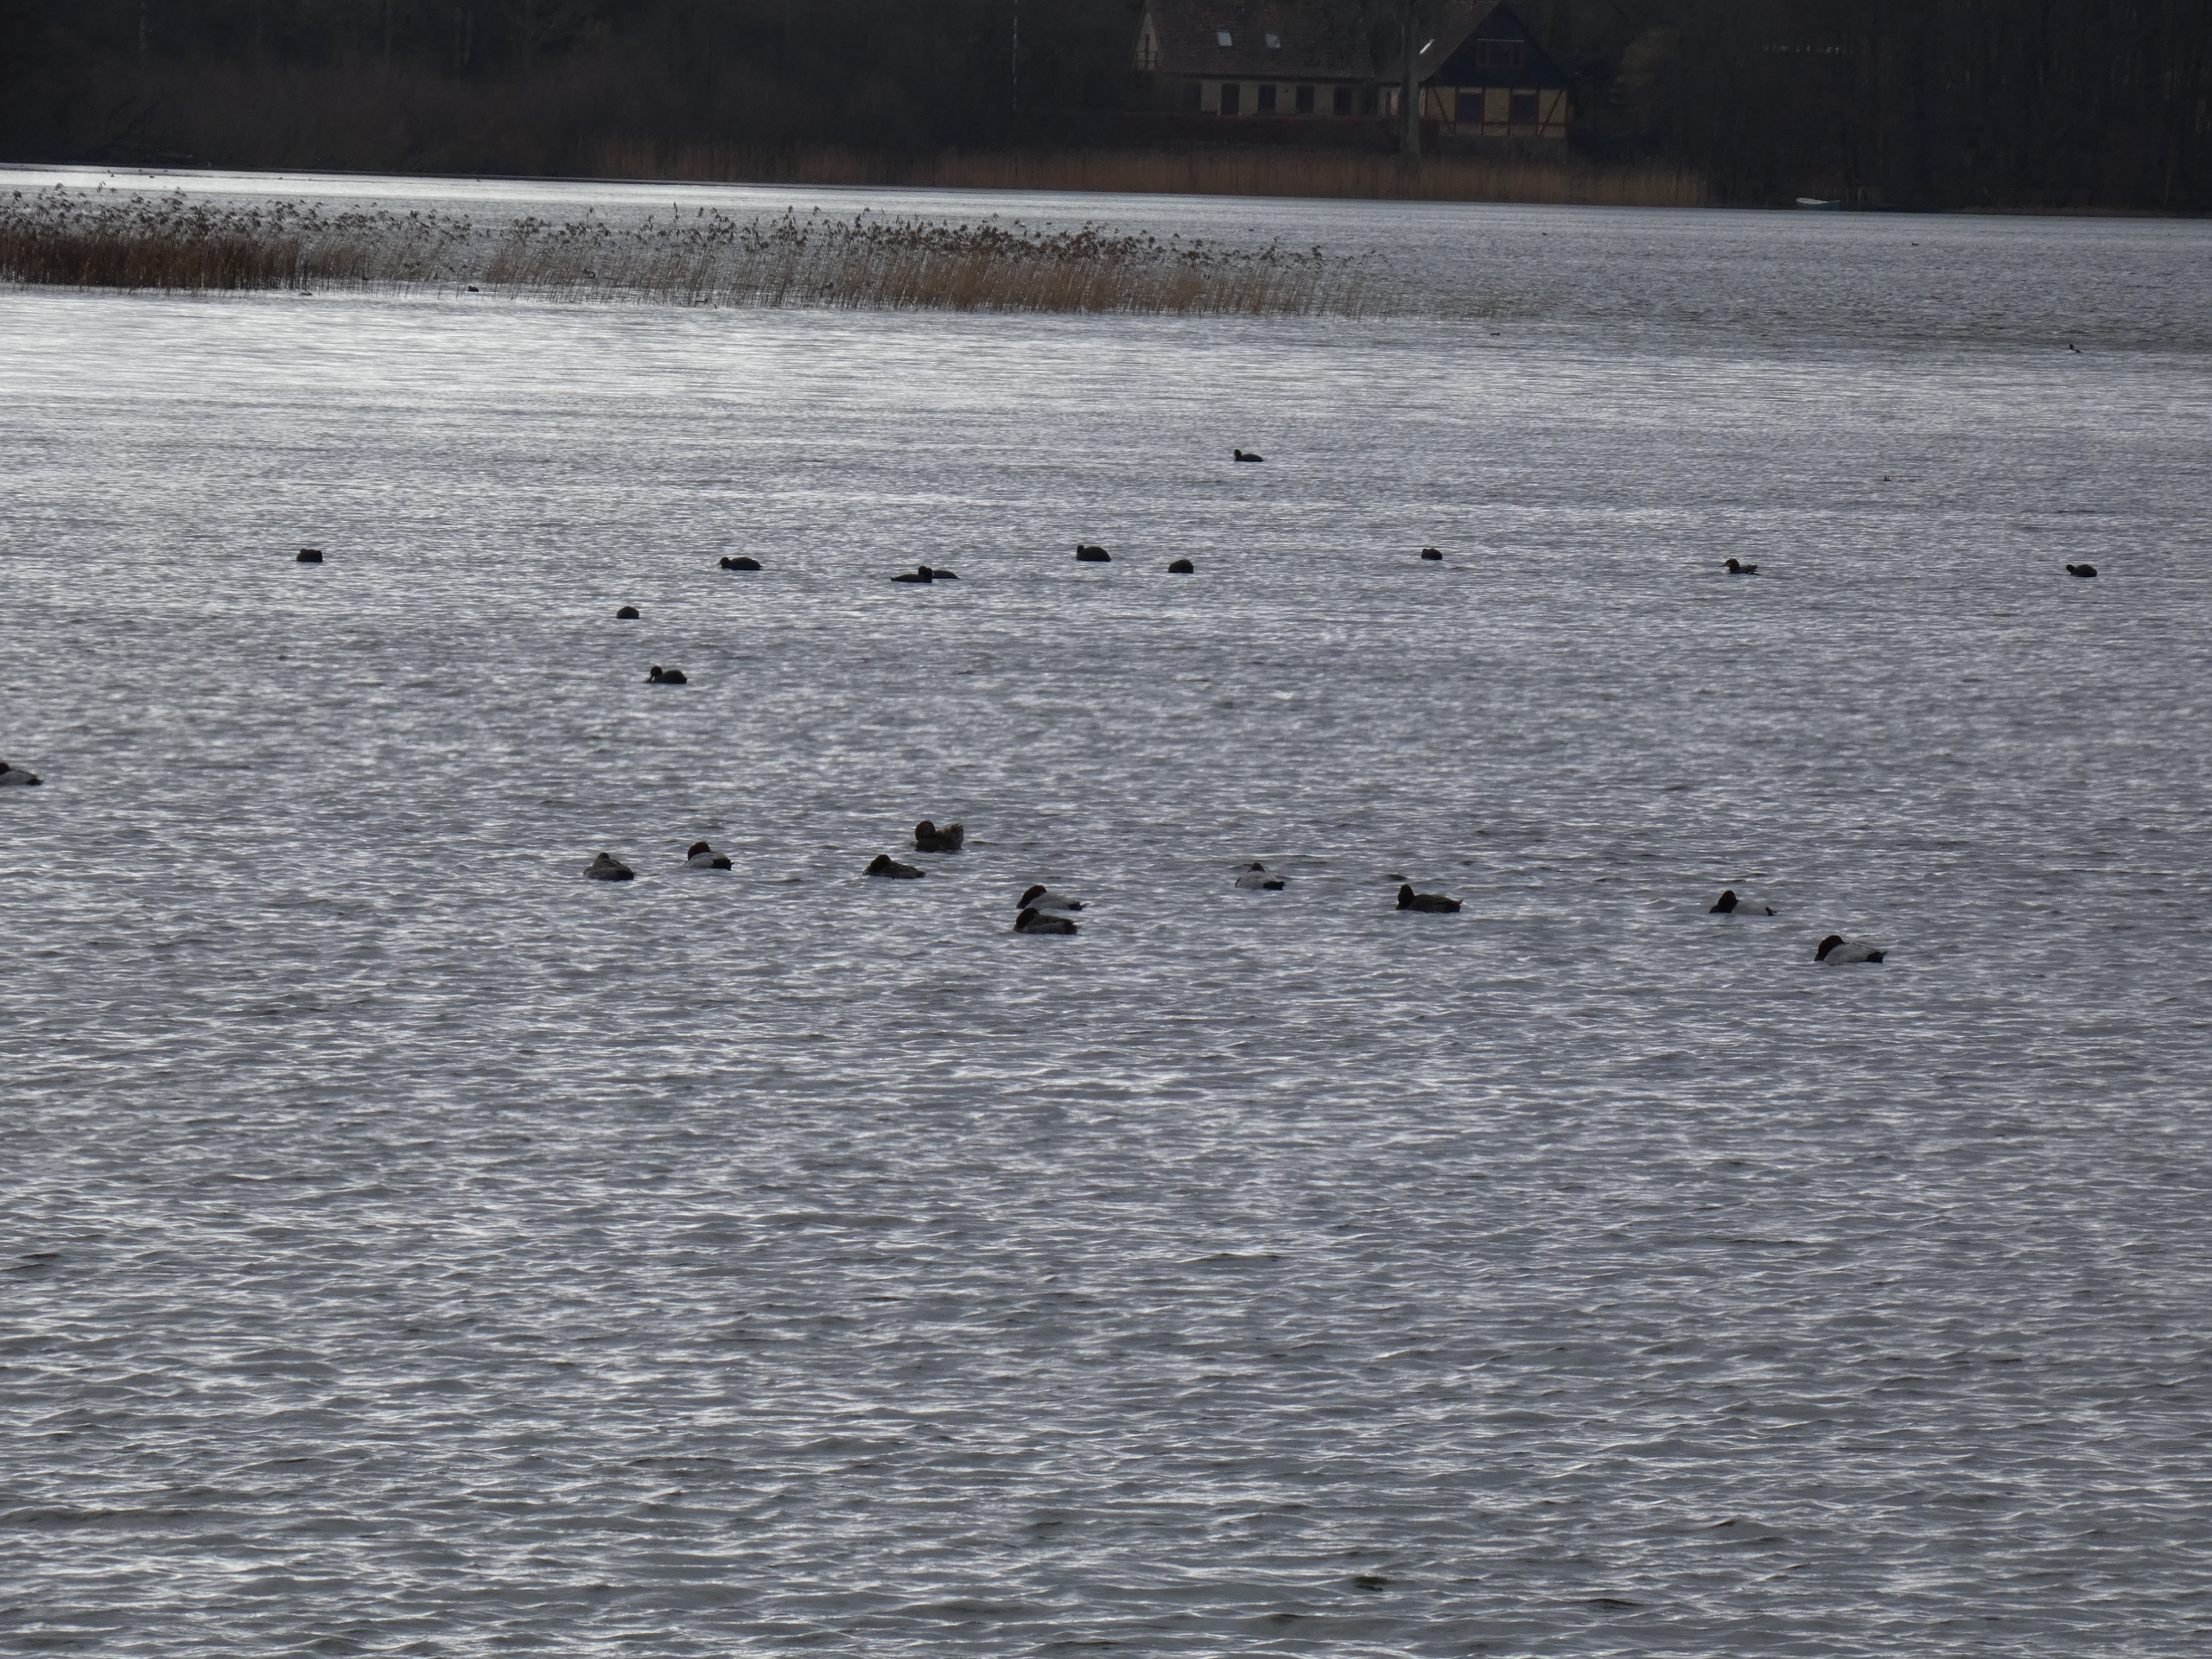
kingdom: Animalia
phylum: Chordata
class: Aves
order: Anseriformes
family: Anatidae
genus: Aythya
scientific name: Aythya ferina
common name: Taffeland
